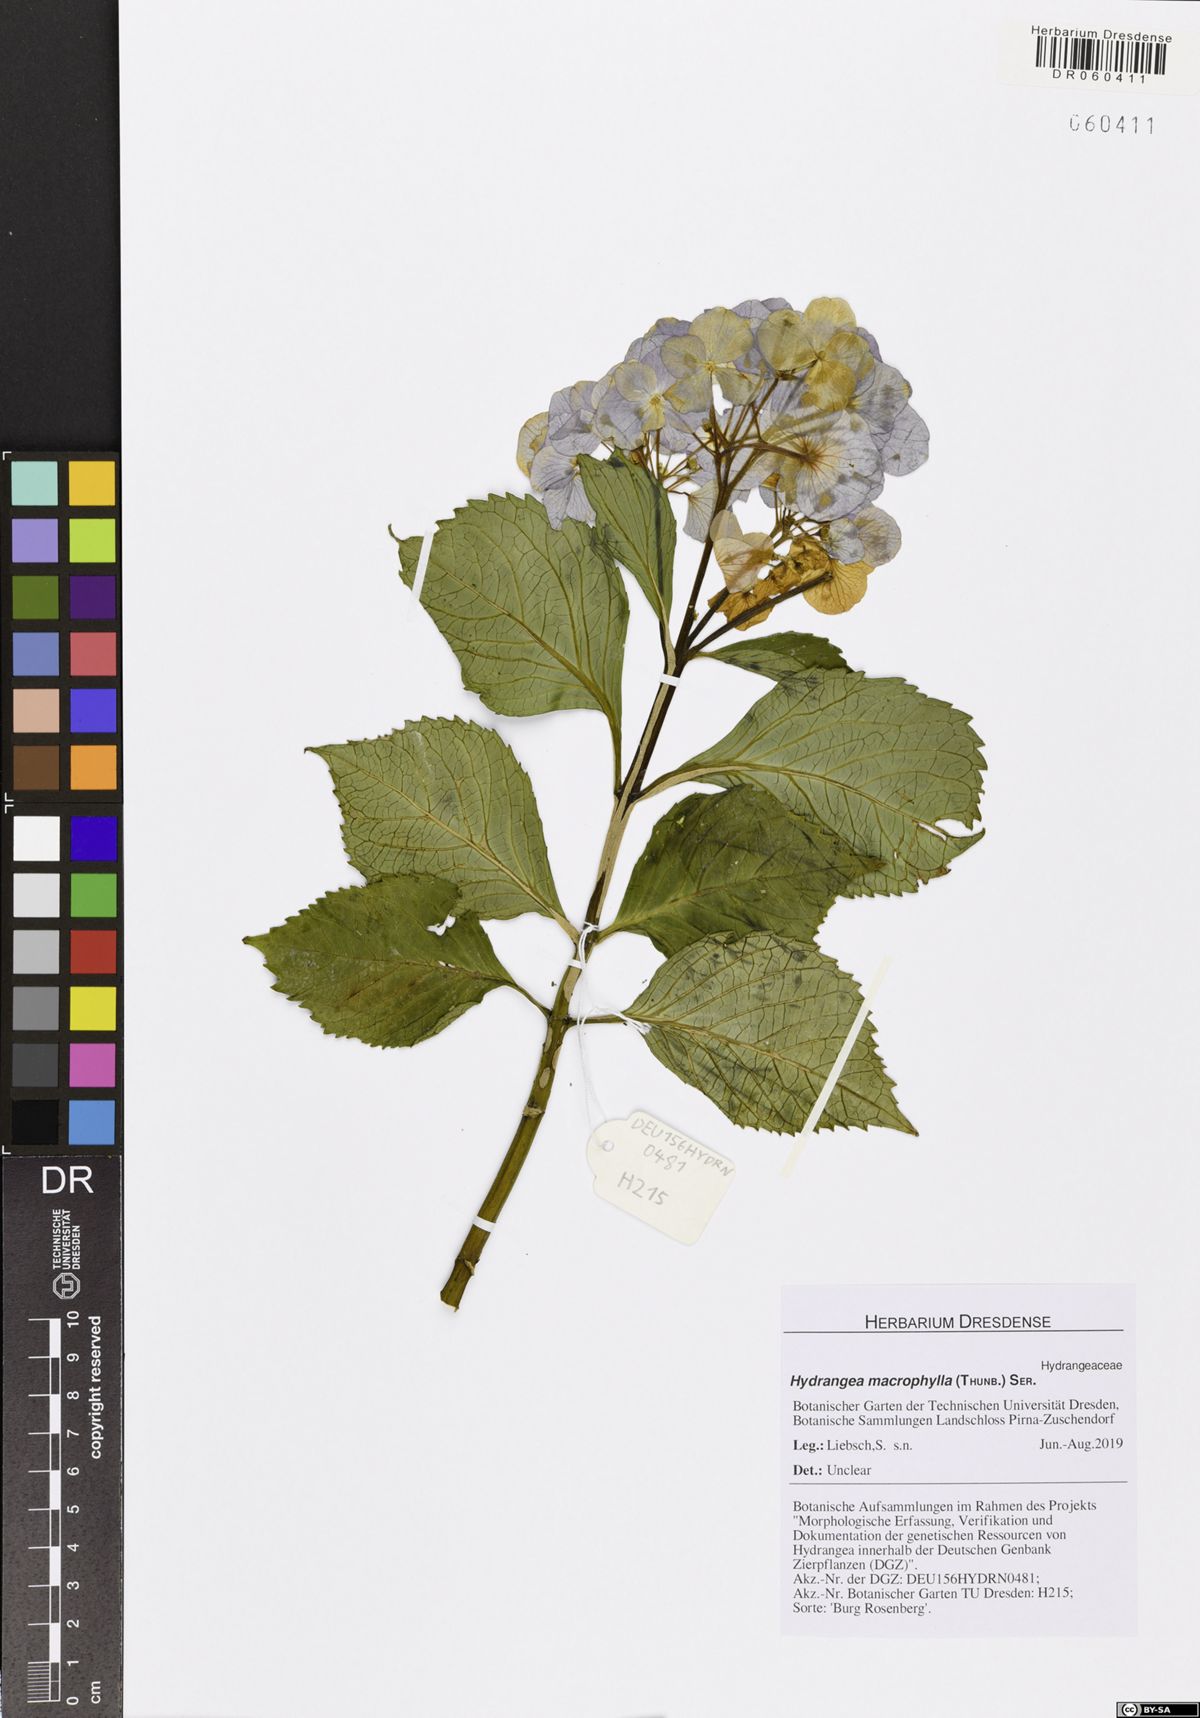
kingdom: Plantae
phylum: Tracheophyta
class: Magnoliopsida
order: Cornales
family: Hydrangeaceae
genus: Hydrangea
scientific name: Hydrangea macrophylla
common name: Hydrangea
